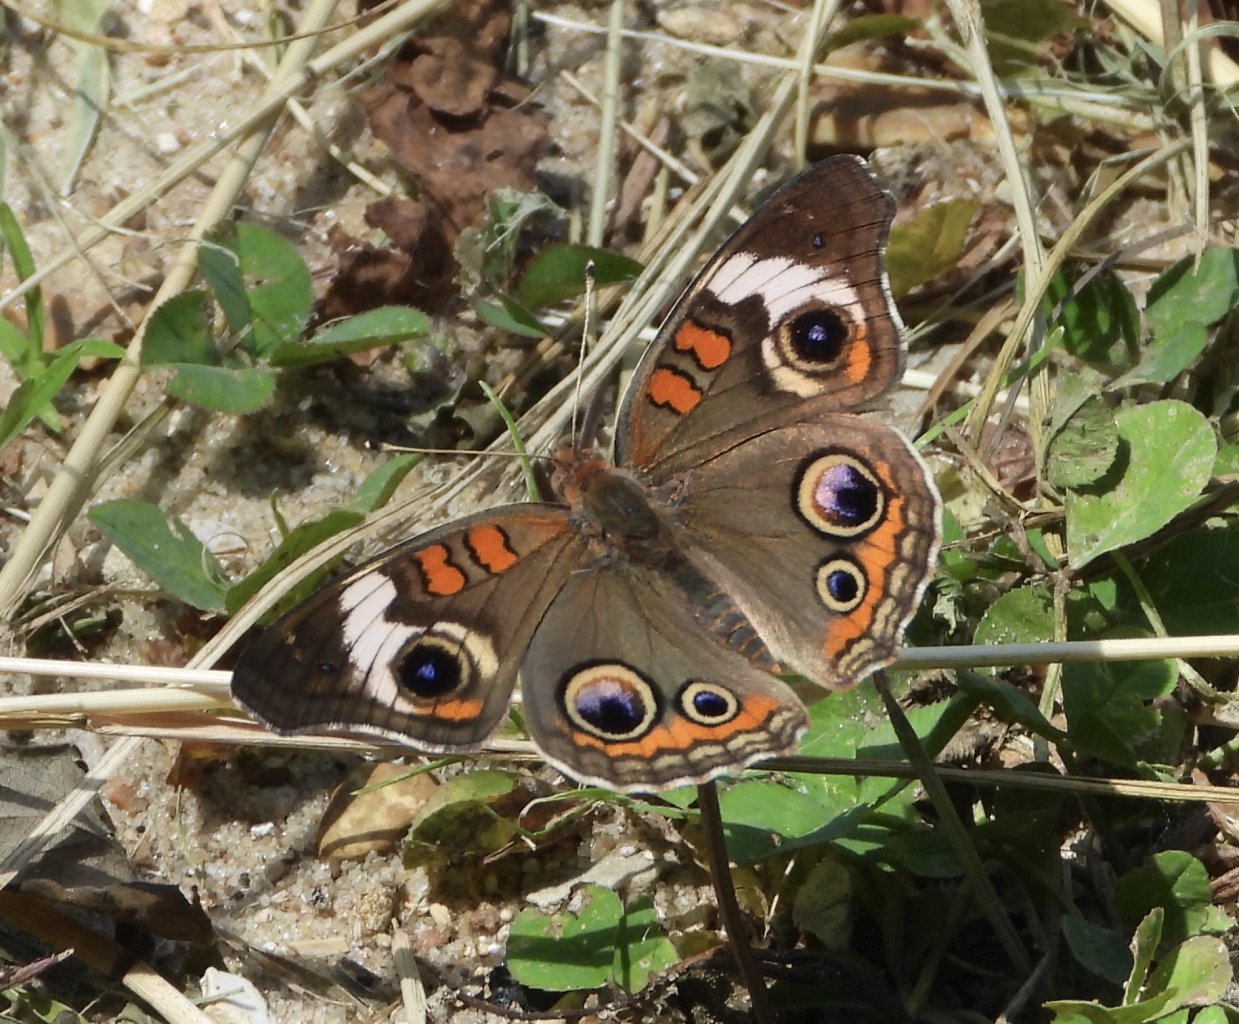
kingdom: Animalia
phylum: Arthropoda
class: Insecta
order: Lepidoptera
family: Nymphalidae
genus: Junonia
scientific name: Junonia coenia
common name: Common Buckeye
